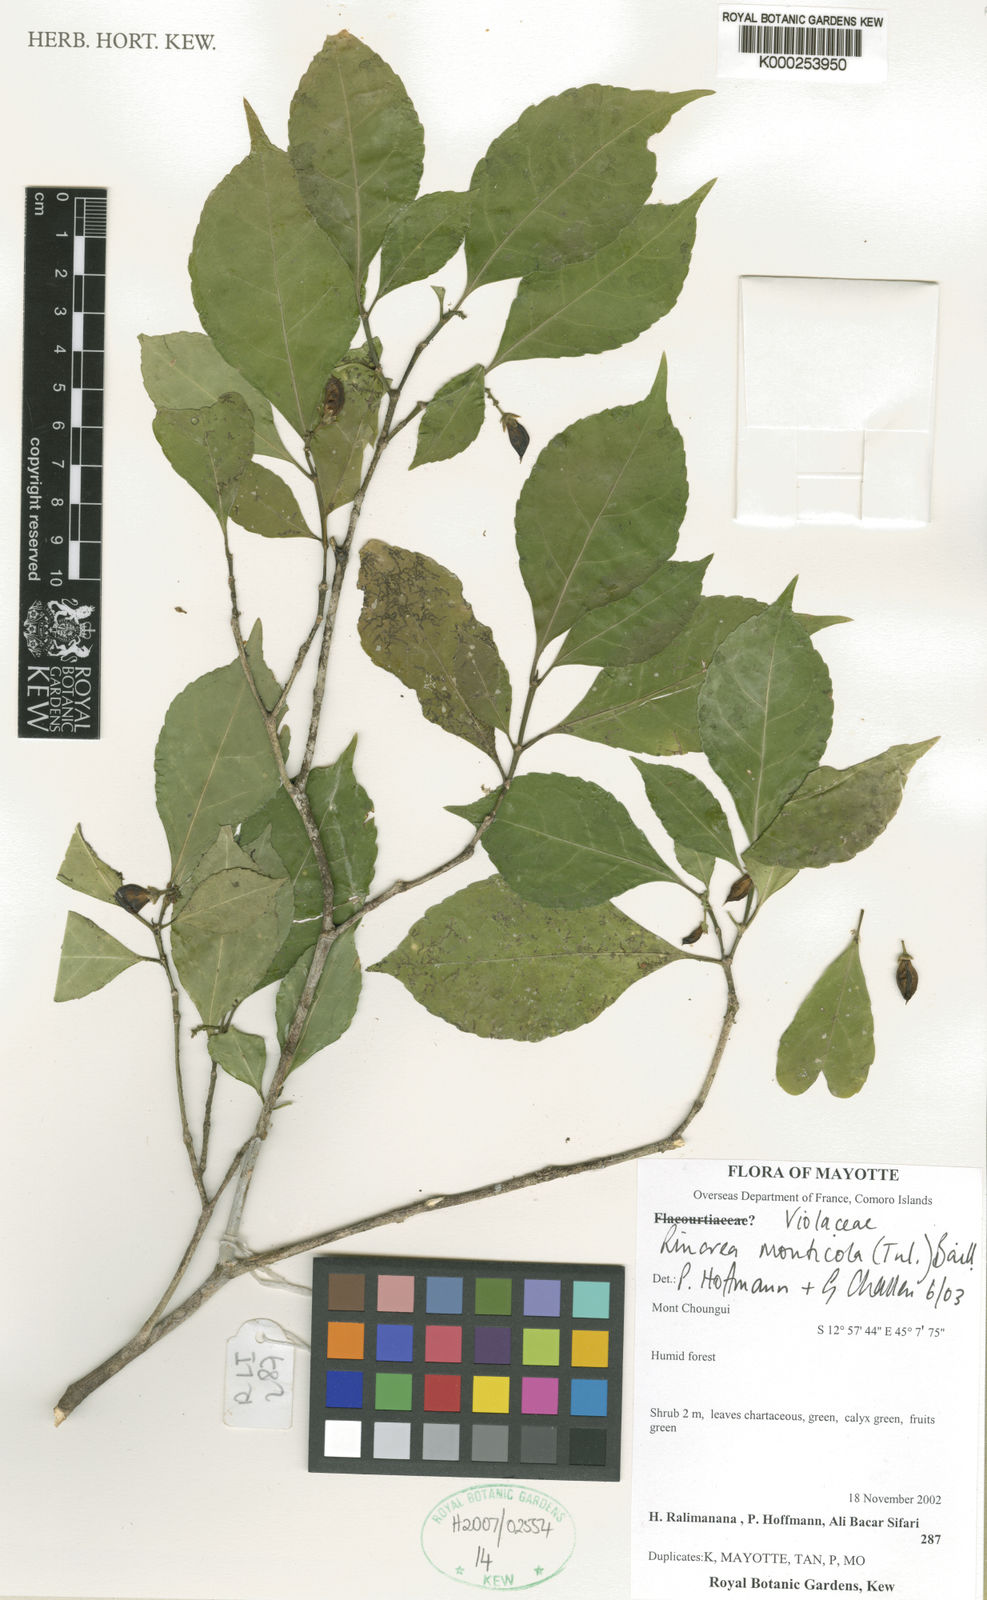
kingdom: Plantae
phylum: Tracheophyta
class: Magnoliopsida
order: Malpighiales
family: Violaceae
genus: Rinorea
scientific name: Rinorea monticola
